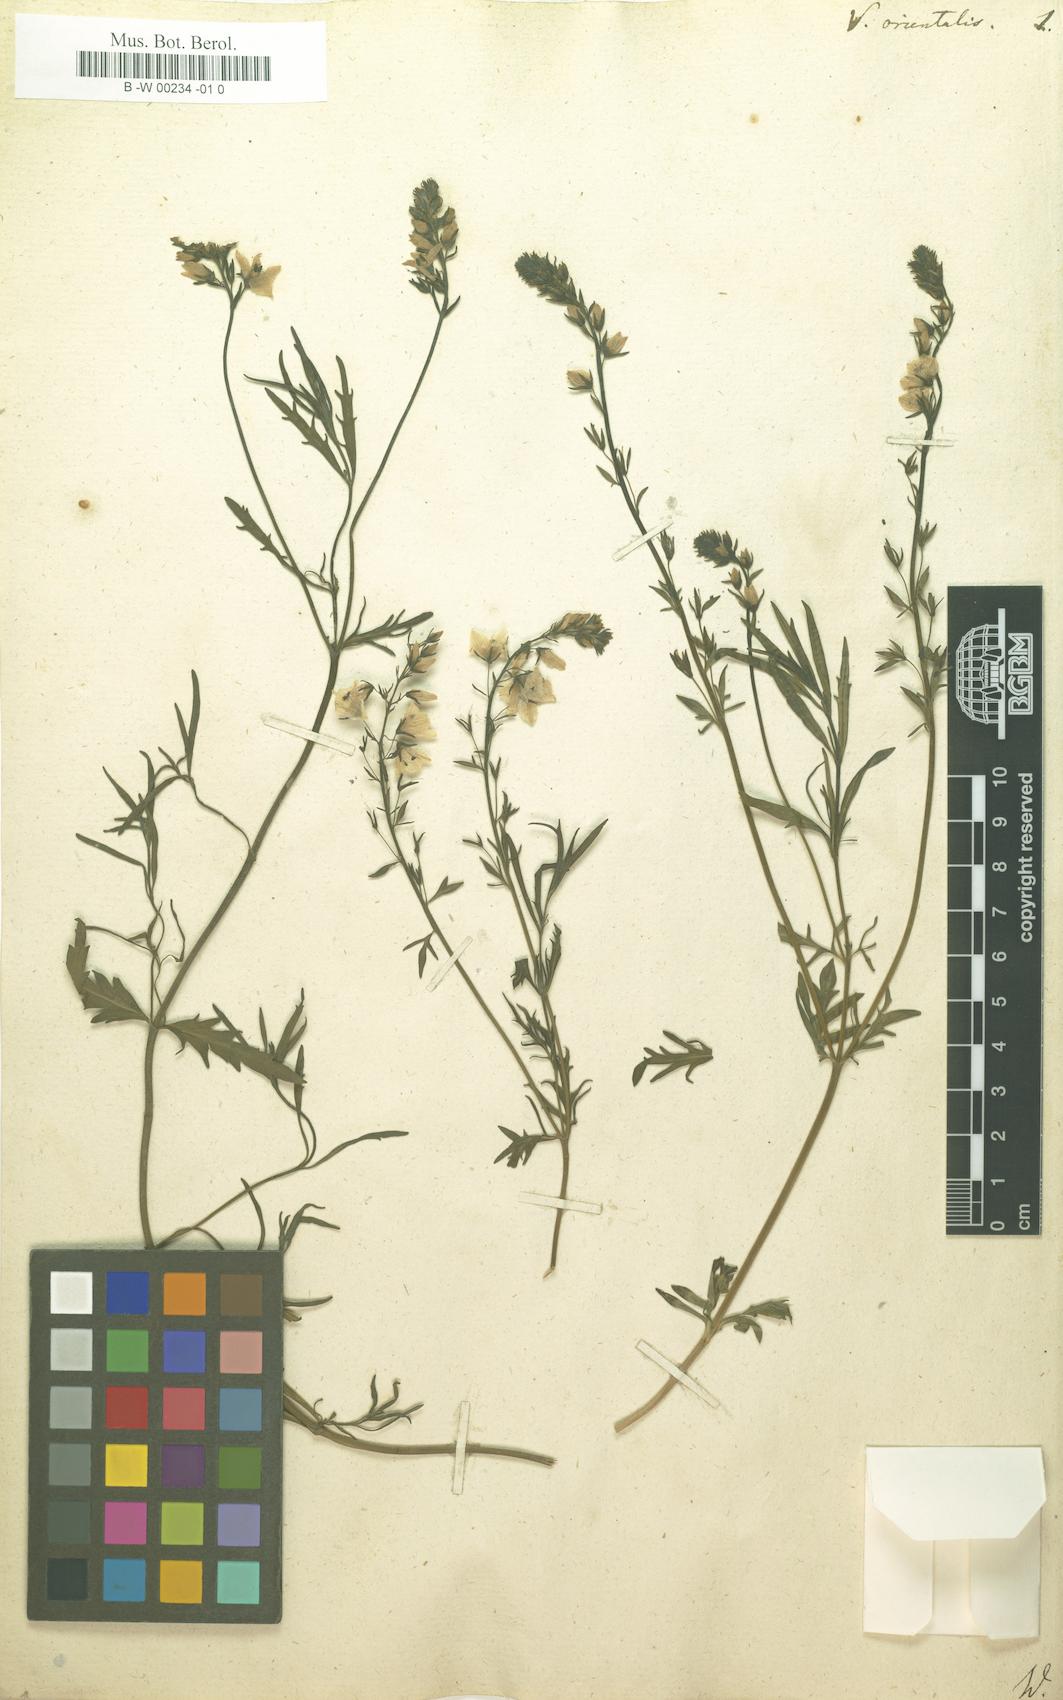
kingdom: Plantae
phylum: Tracheophyta
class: Magnoliopsida
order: Lamiales
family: Plantaginaceae
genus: Veronica
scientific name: Veronica orientalis
